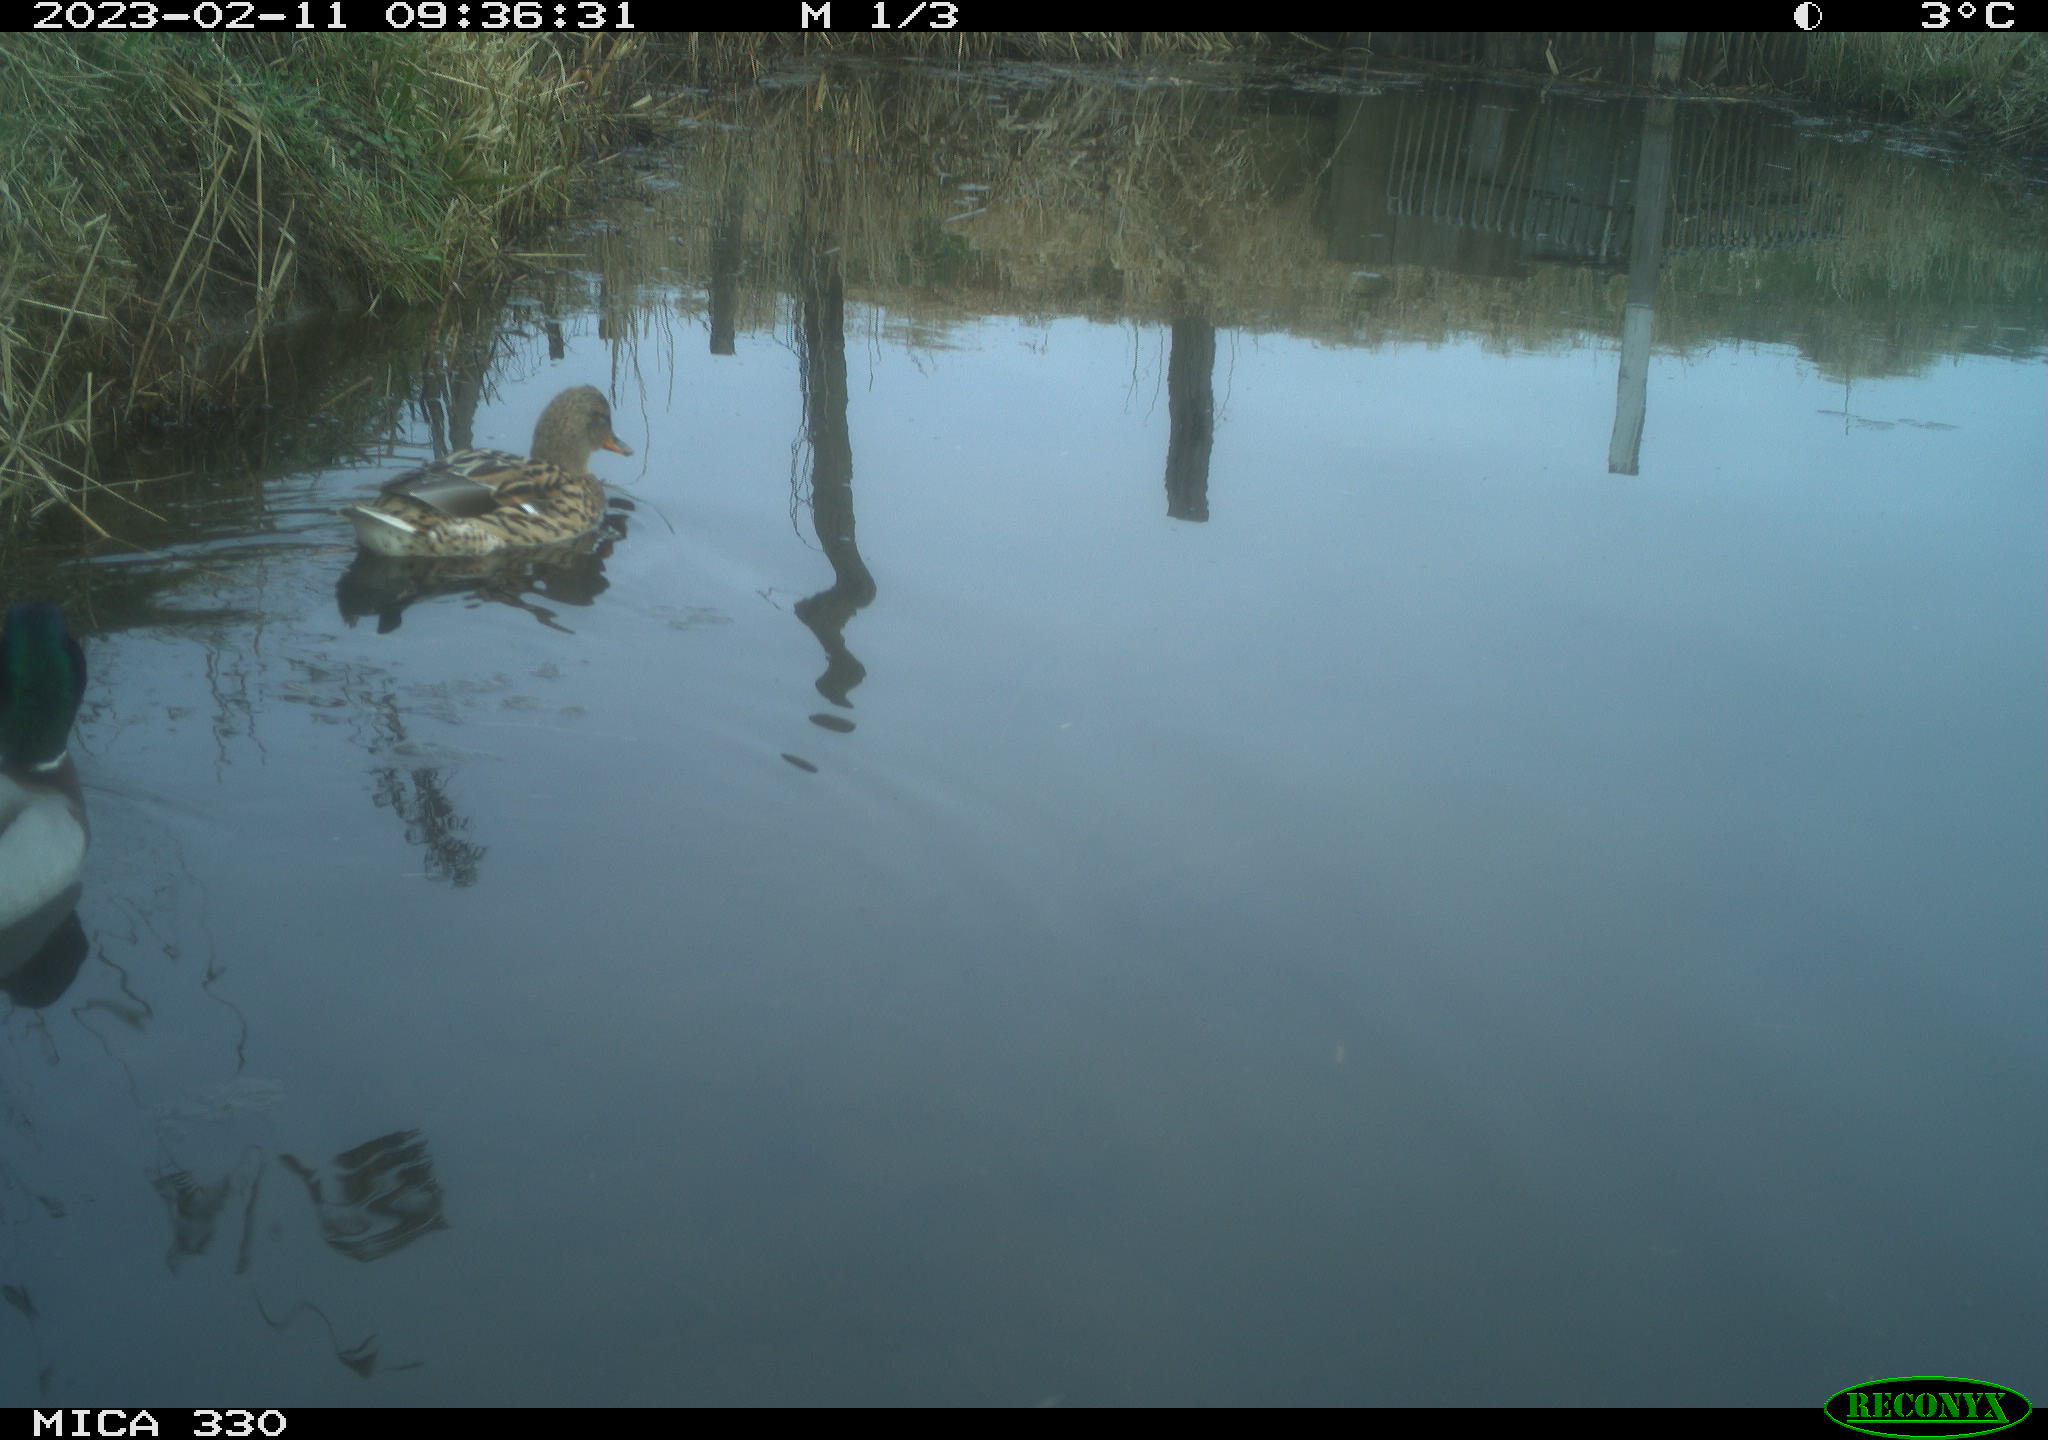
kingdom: Animalia
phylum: Chordata
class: Aves
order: Anseriformes
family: Anatidae
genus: Anas
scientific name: Anas
